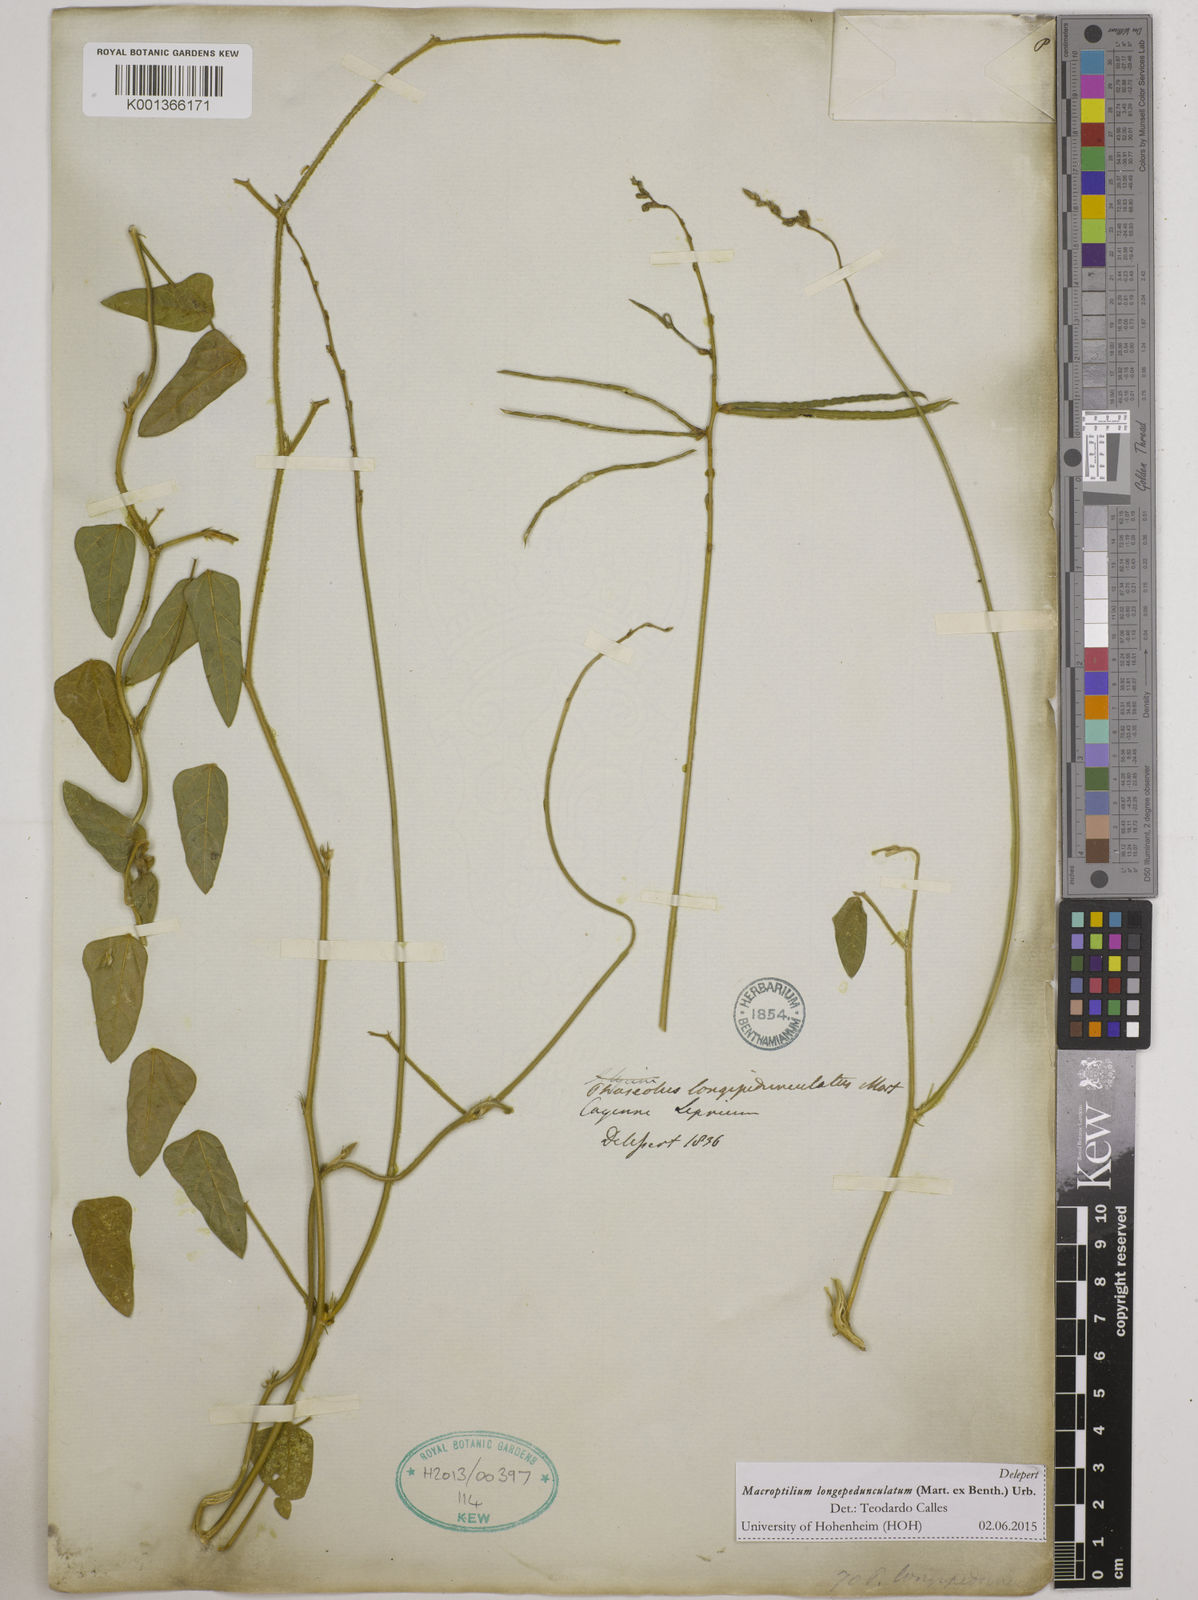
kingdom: Plantae
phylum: Tracheophyta
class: Magnoliopsida
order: Fabales
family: Fabaceae
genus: Macroptilium
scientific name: Macroptilium longepedunculatum
